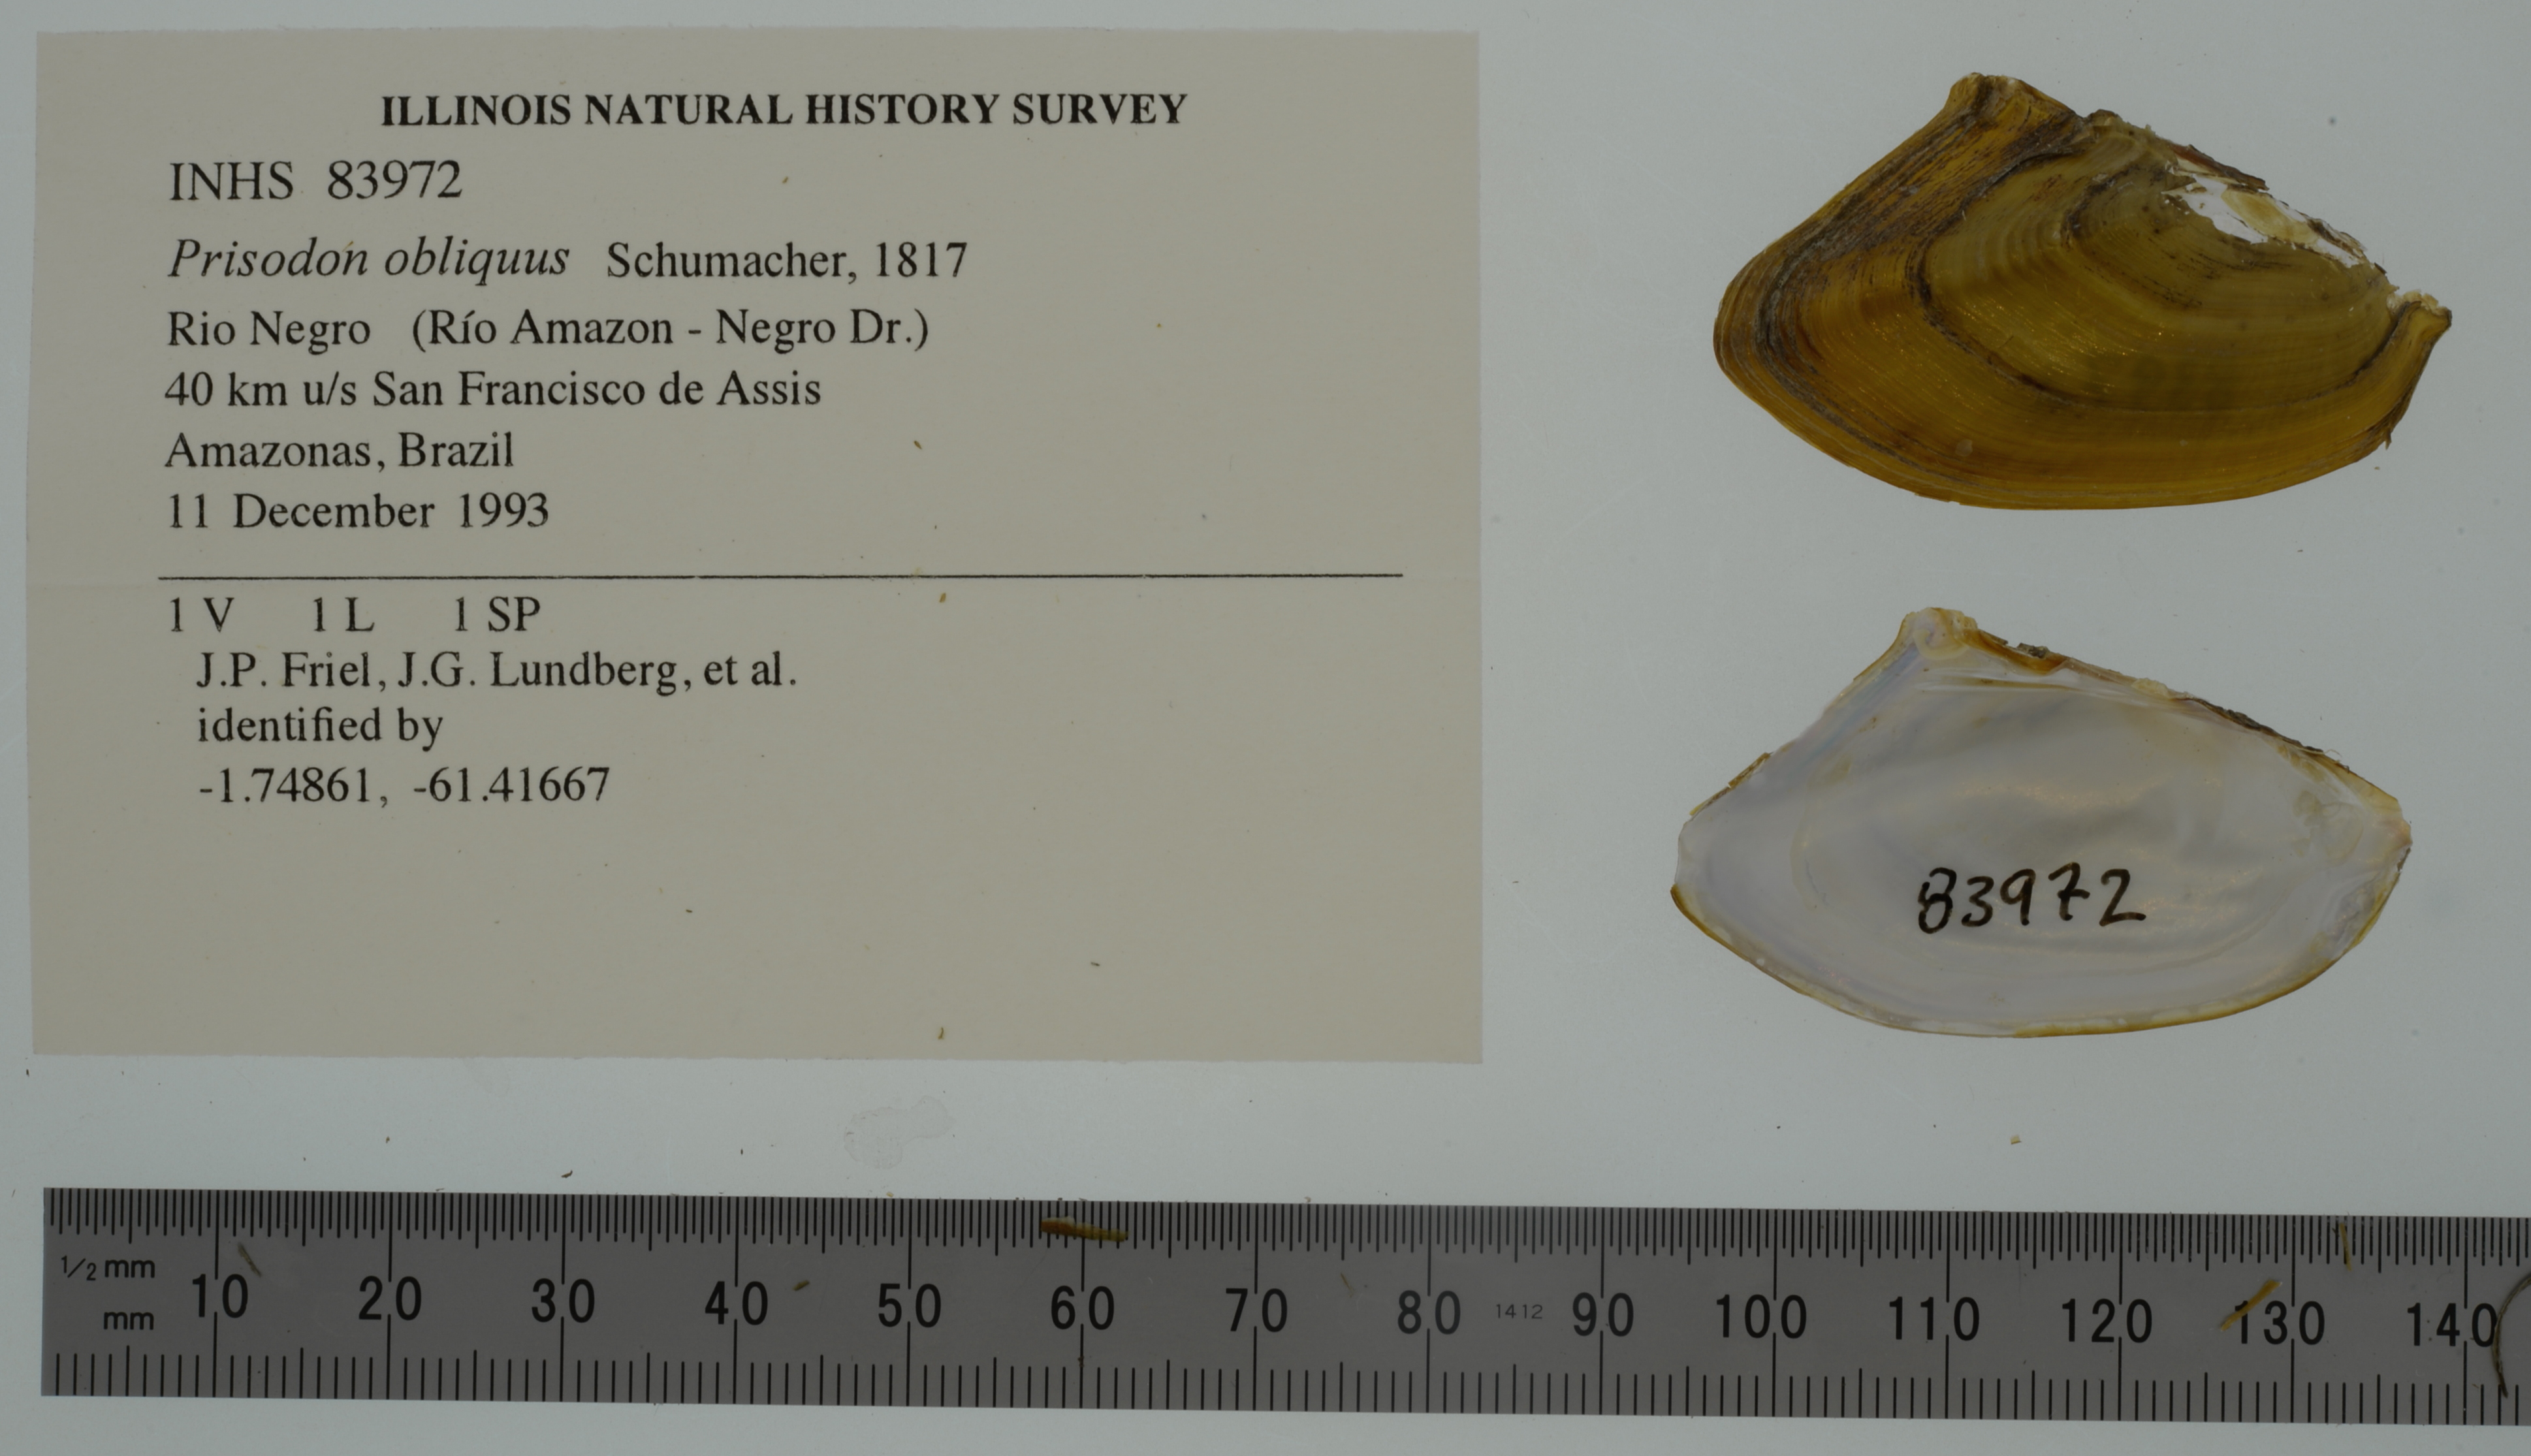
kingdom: Animalia
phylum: Mollusca
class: Bivalvia
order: Unionida
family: Hyriidae
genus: Prisodon
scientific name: Prisodon obliquus
